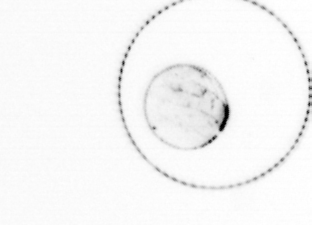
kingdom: Chromista
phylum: Ochrophyta
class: Bacillariophyceae
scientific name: Bacillariophyceae
